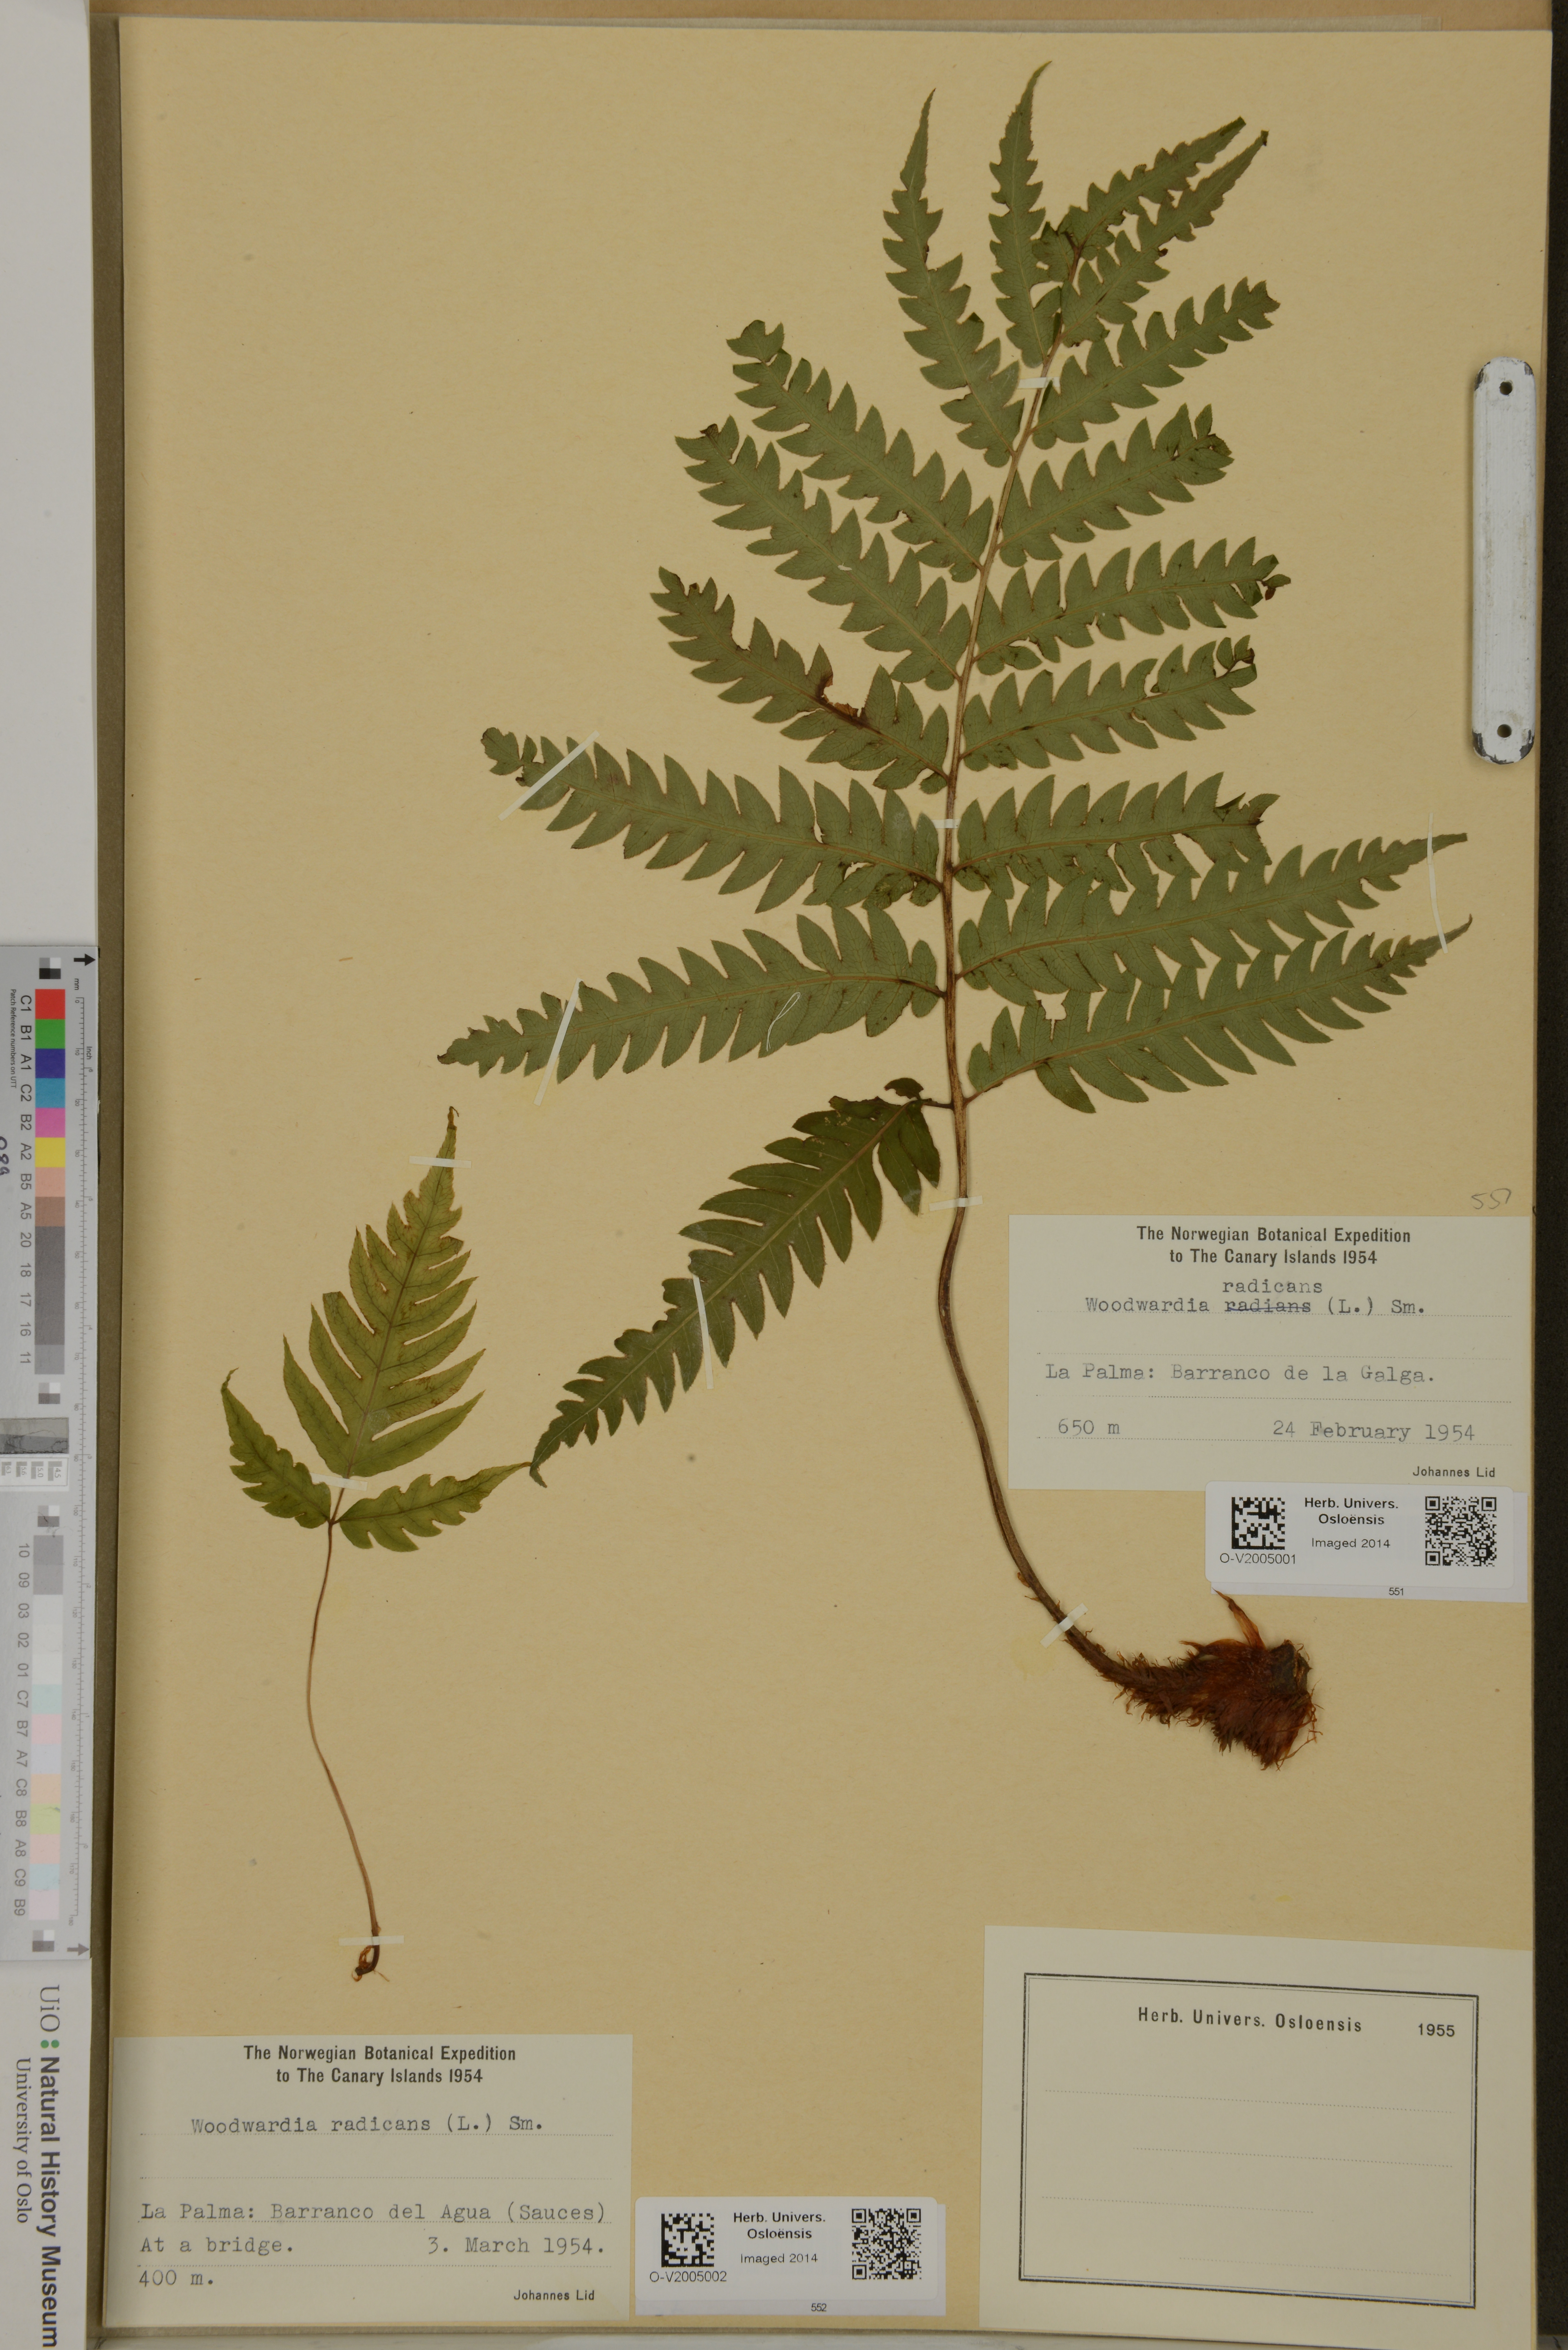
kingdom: Plantae
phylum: Tracheophyta
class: Polypodiopsida
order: Polypodiales
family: Blechnaceae
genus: Woodwardia
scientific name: Woodwardia radicans
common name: Rooting chainfern
